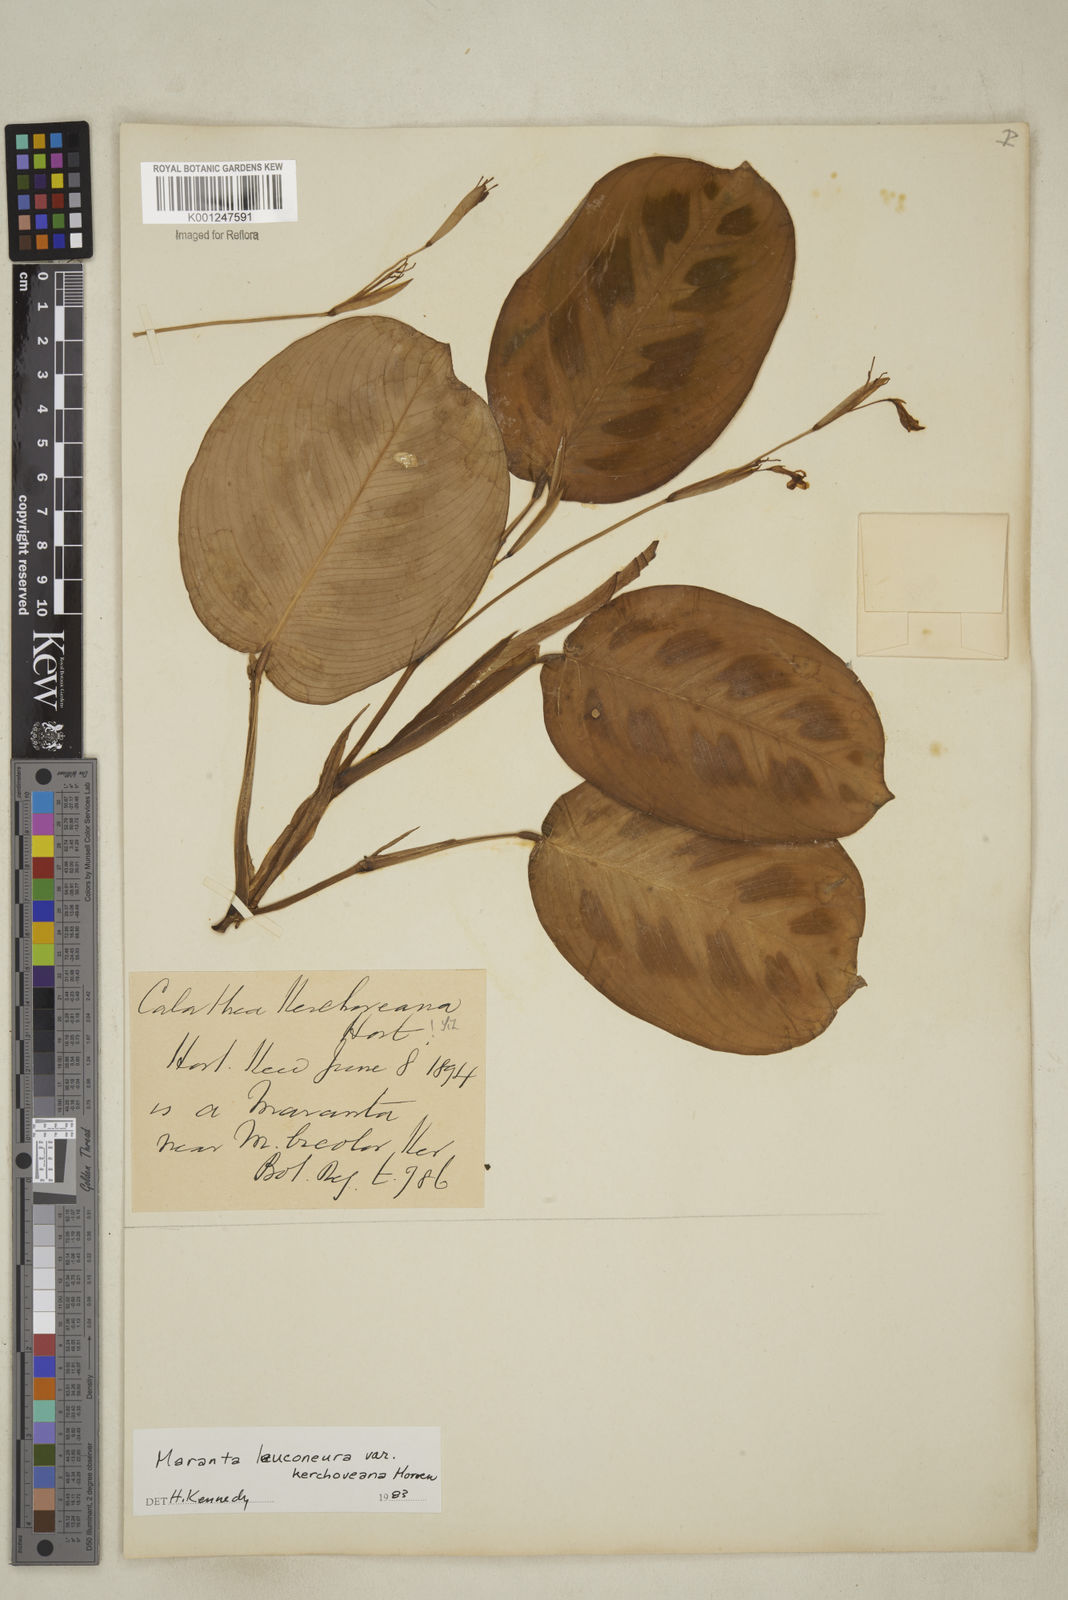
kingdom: Plantae
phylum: Tracheophyta
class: Liliopsida
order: Zingiberales
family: Marantaceae
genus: Maranta
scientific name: Maranta leuconeura
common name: Ten-commandments
